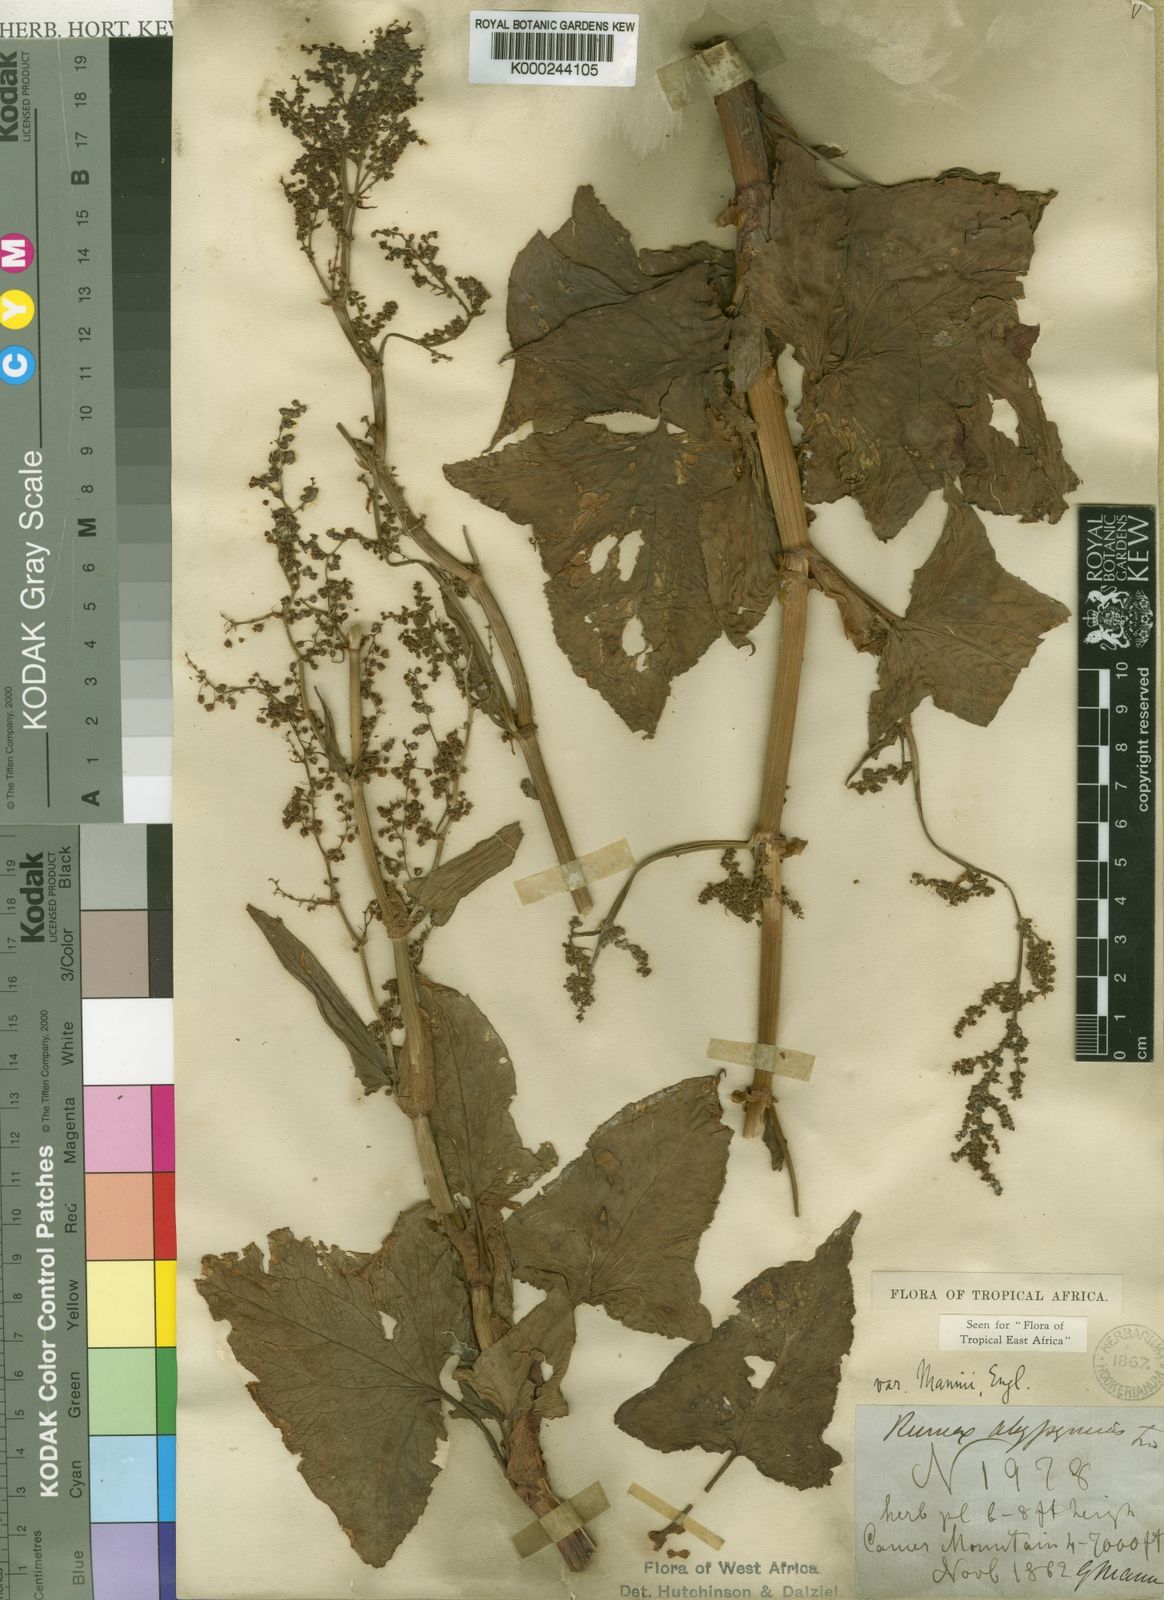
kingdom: Plantae
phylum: Tracheophyta
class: Magnoliopsida
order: Caryophyllales
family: Polygonaceae
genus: Rumex
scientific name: Rumex abyssinicus
